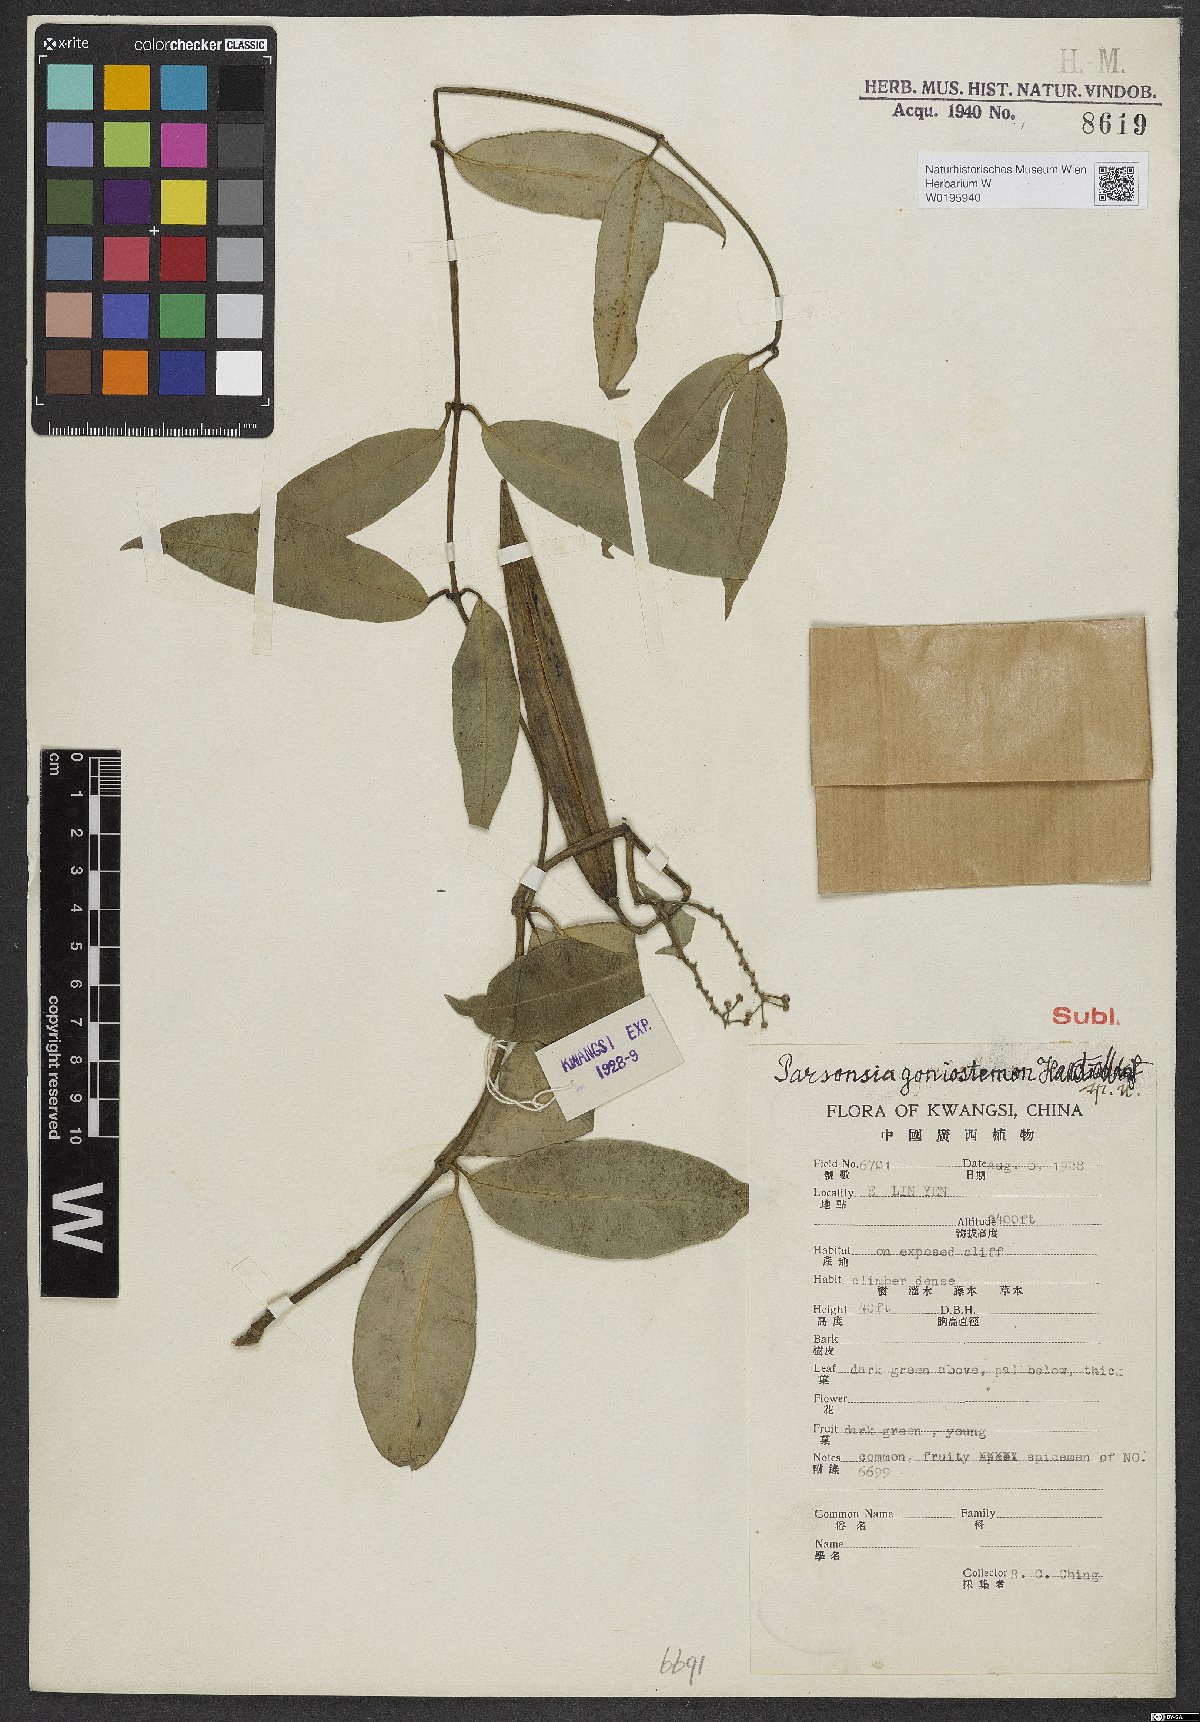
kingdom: Plantae
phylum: Tracheophyta
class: Magnoliopsida
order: Gentianales
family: Apocynaceae
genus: Parsonsia
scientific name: Parsonsia goniostemon
